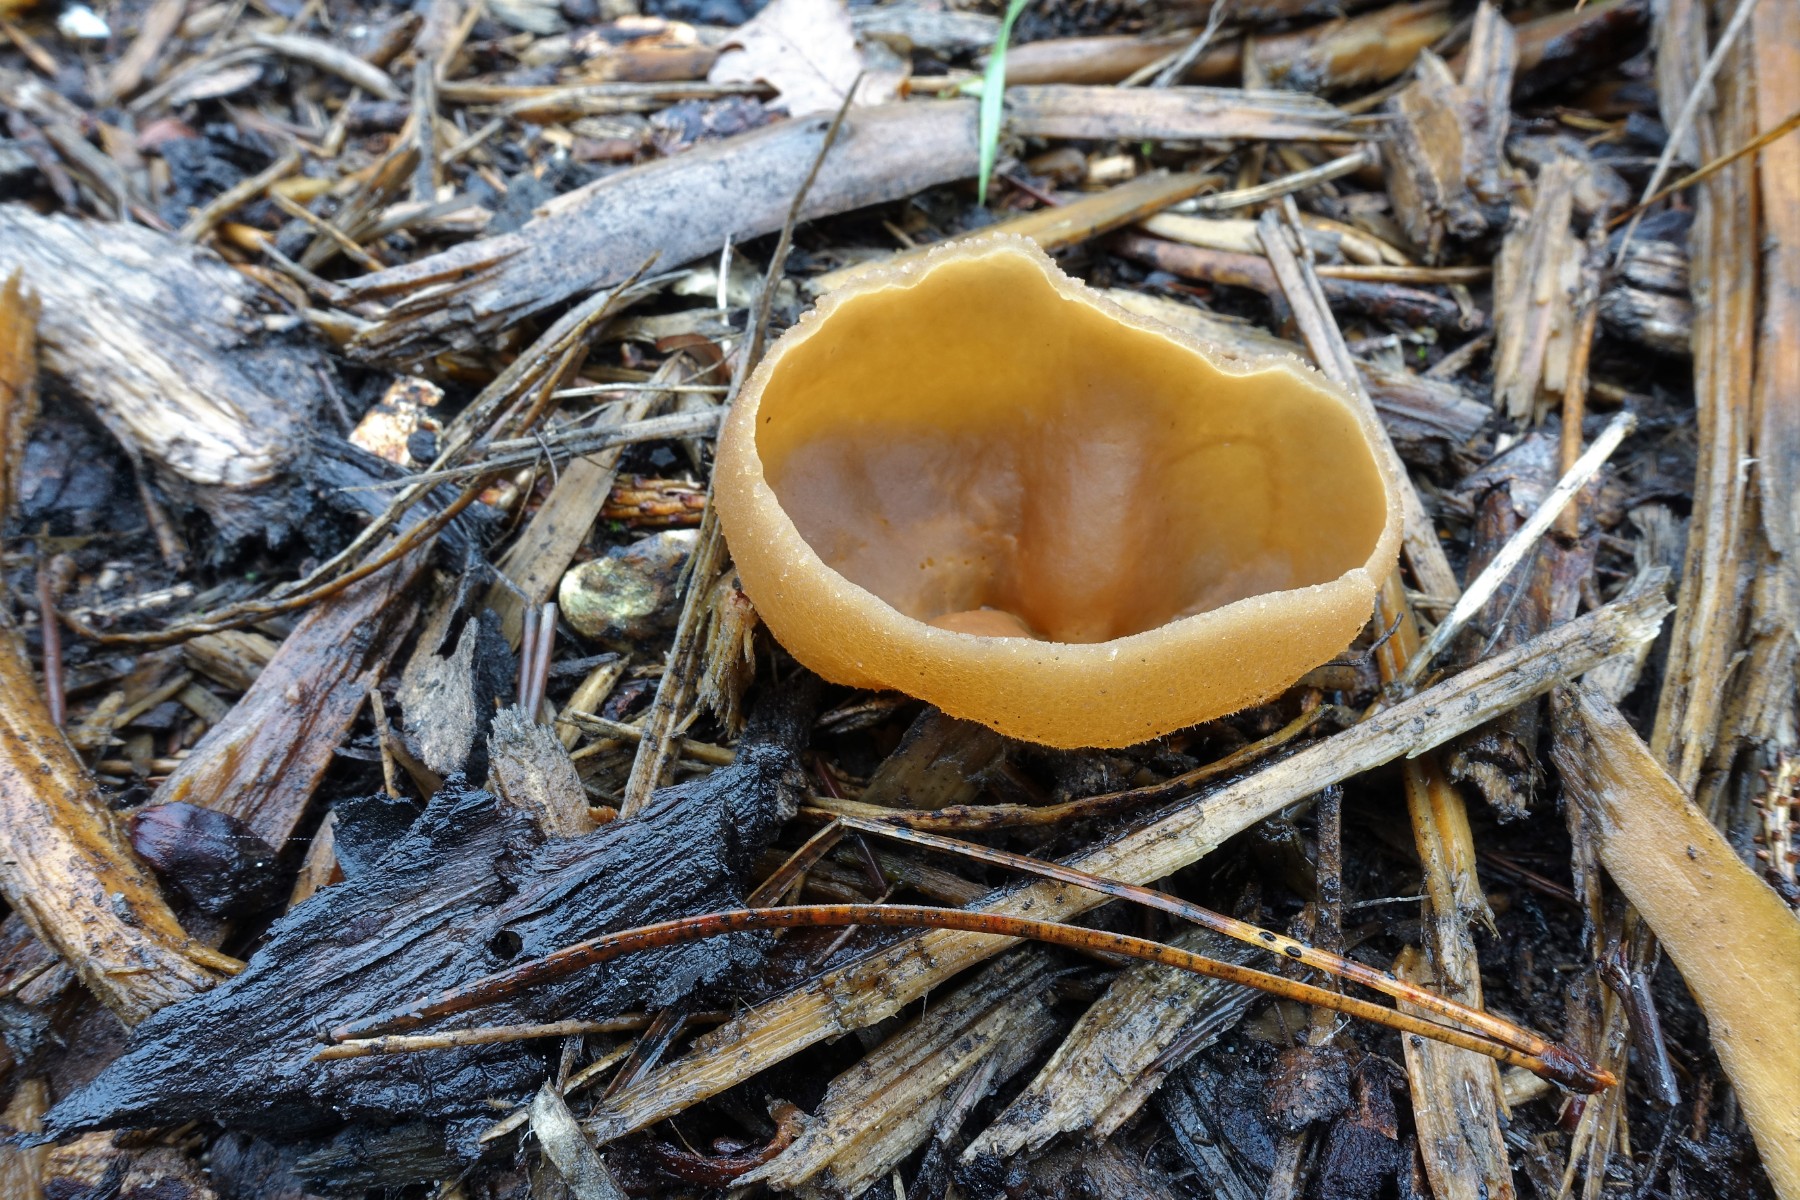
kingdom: Fungi
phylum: Ascomycota
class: Pezizomycetes
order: Pezizales
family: Pezizaceae
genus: Peziza
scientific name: Peziza varia
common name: Ved-bægersvamp
